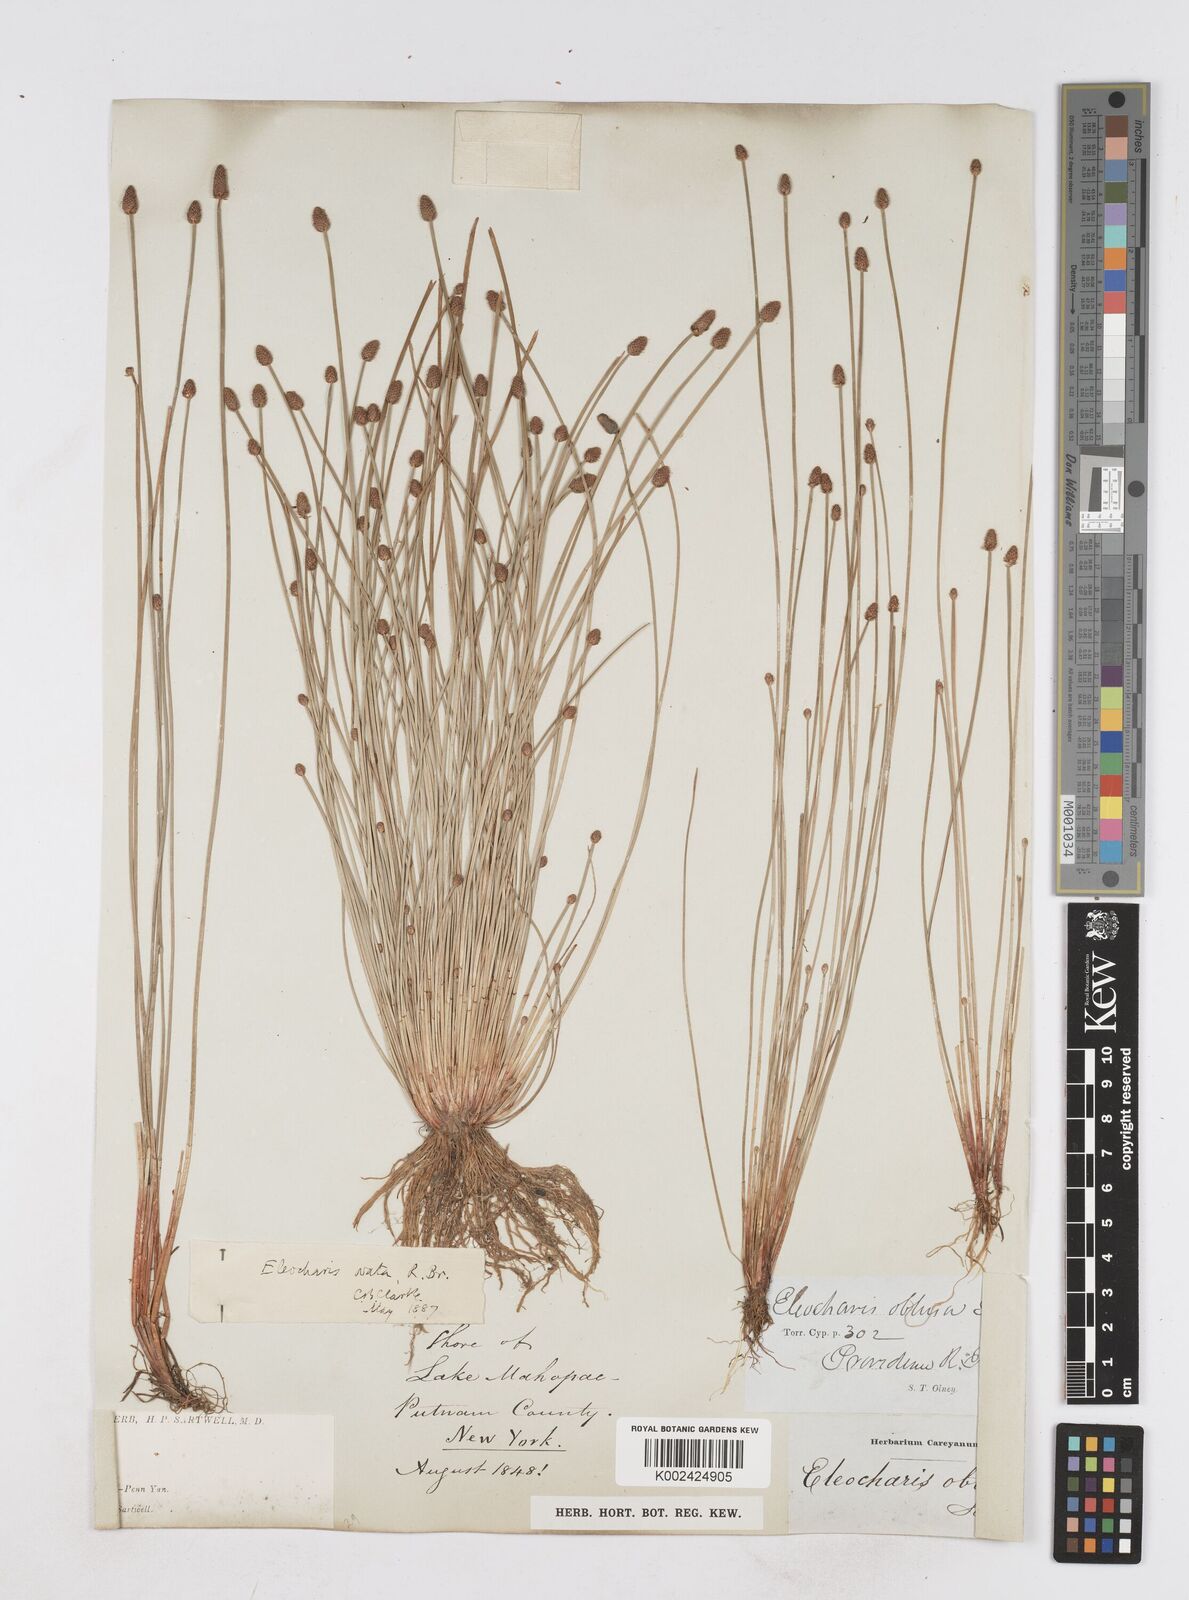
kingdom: Plantae
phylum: Tracheophyta
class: Liliopsida
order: Poales
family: Cyperaceae
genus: Eleocharis
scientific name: Eleocharis ovata
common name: Oval spike-rush
